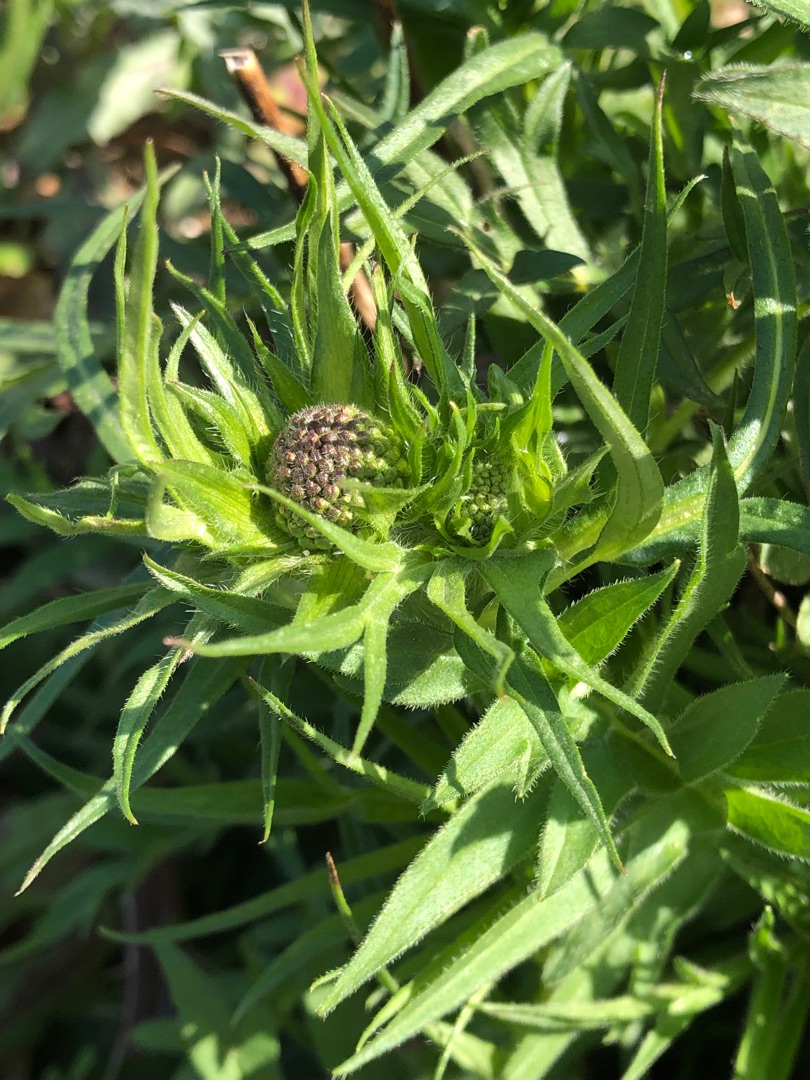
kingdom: Plantae
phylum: Tracheophyta
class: Magnoliopsida
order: Dipsacales
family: Caprifoliaceae
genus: Knautia
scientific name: Knautia arvensis
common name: Blåhat
